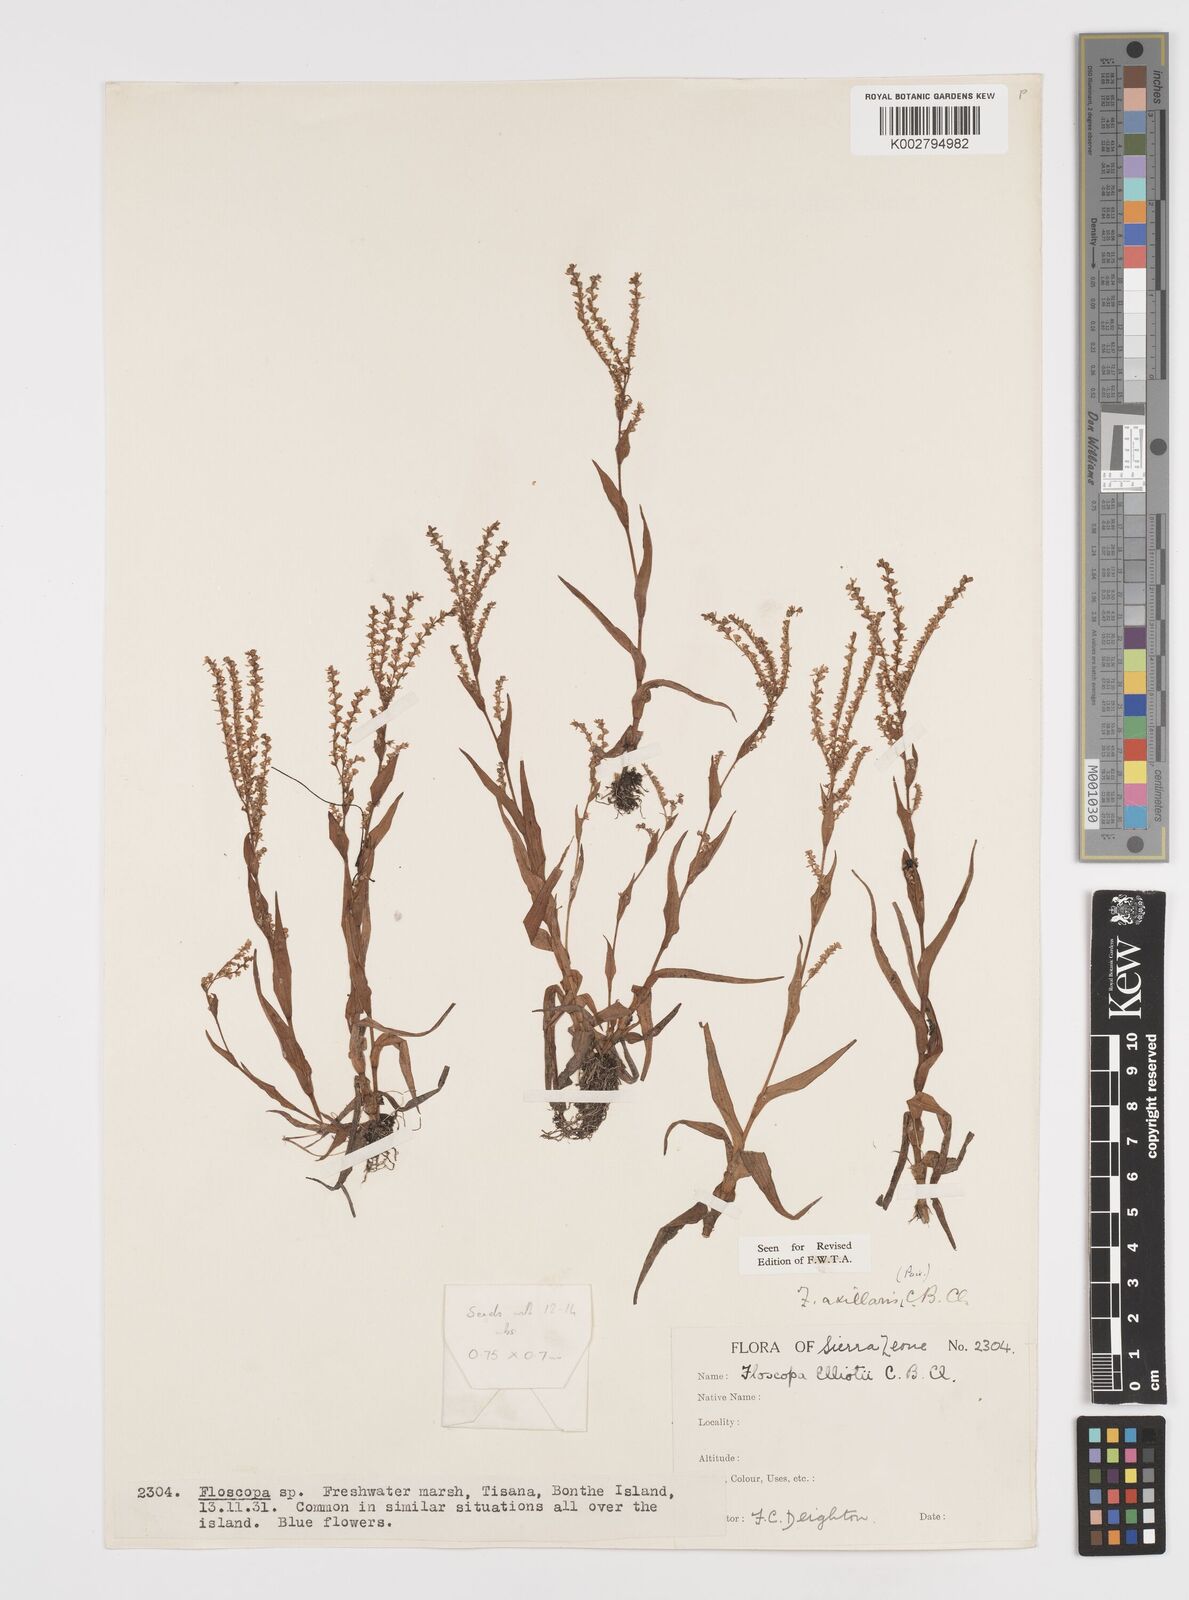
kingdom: Plantae
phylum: Tracheophyta
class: Liliopsida
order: Commelinales
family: Commelinaceae
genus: Floscopa
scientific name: Floscopa axillaris
